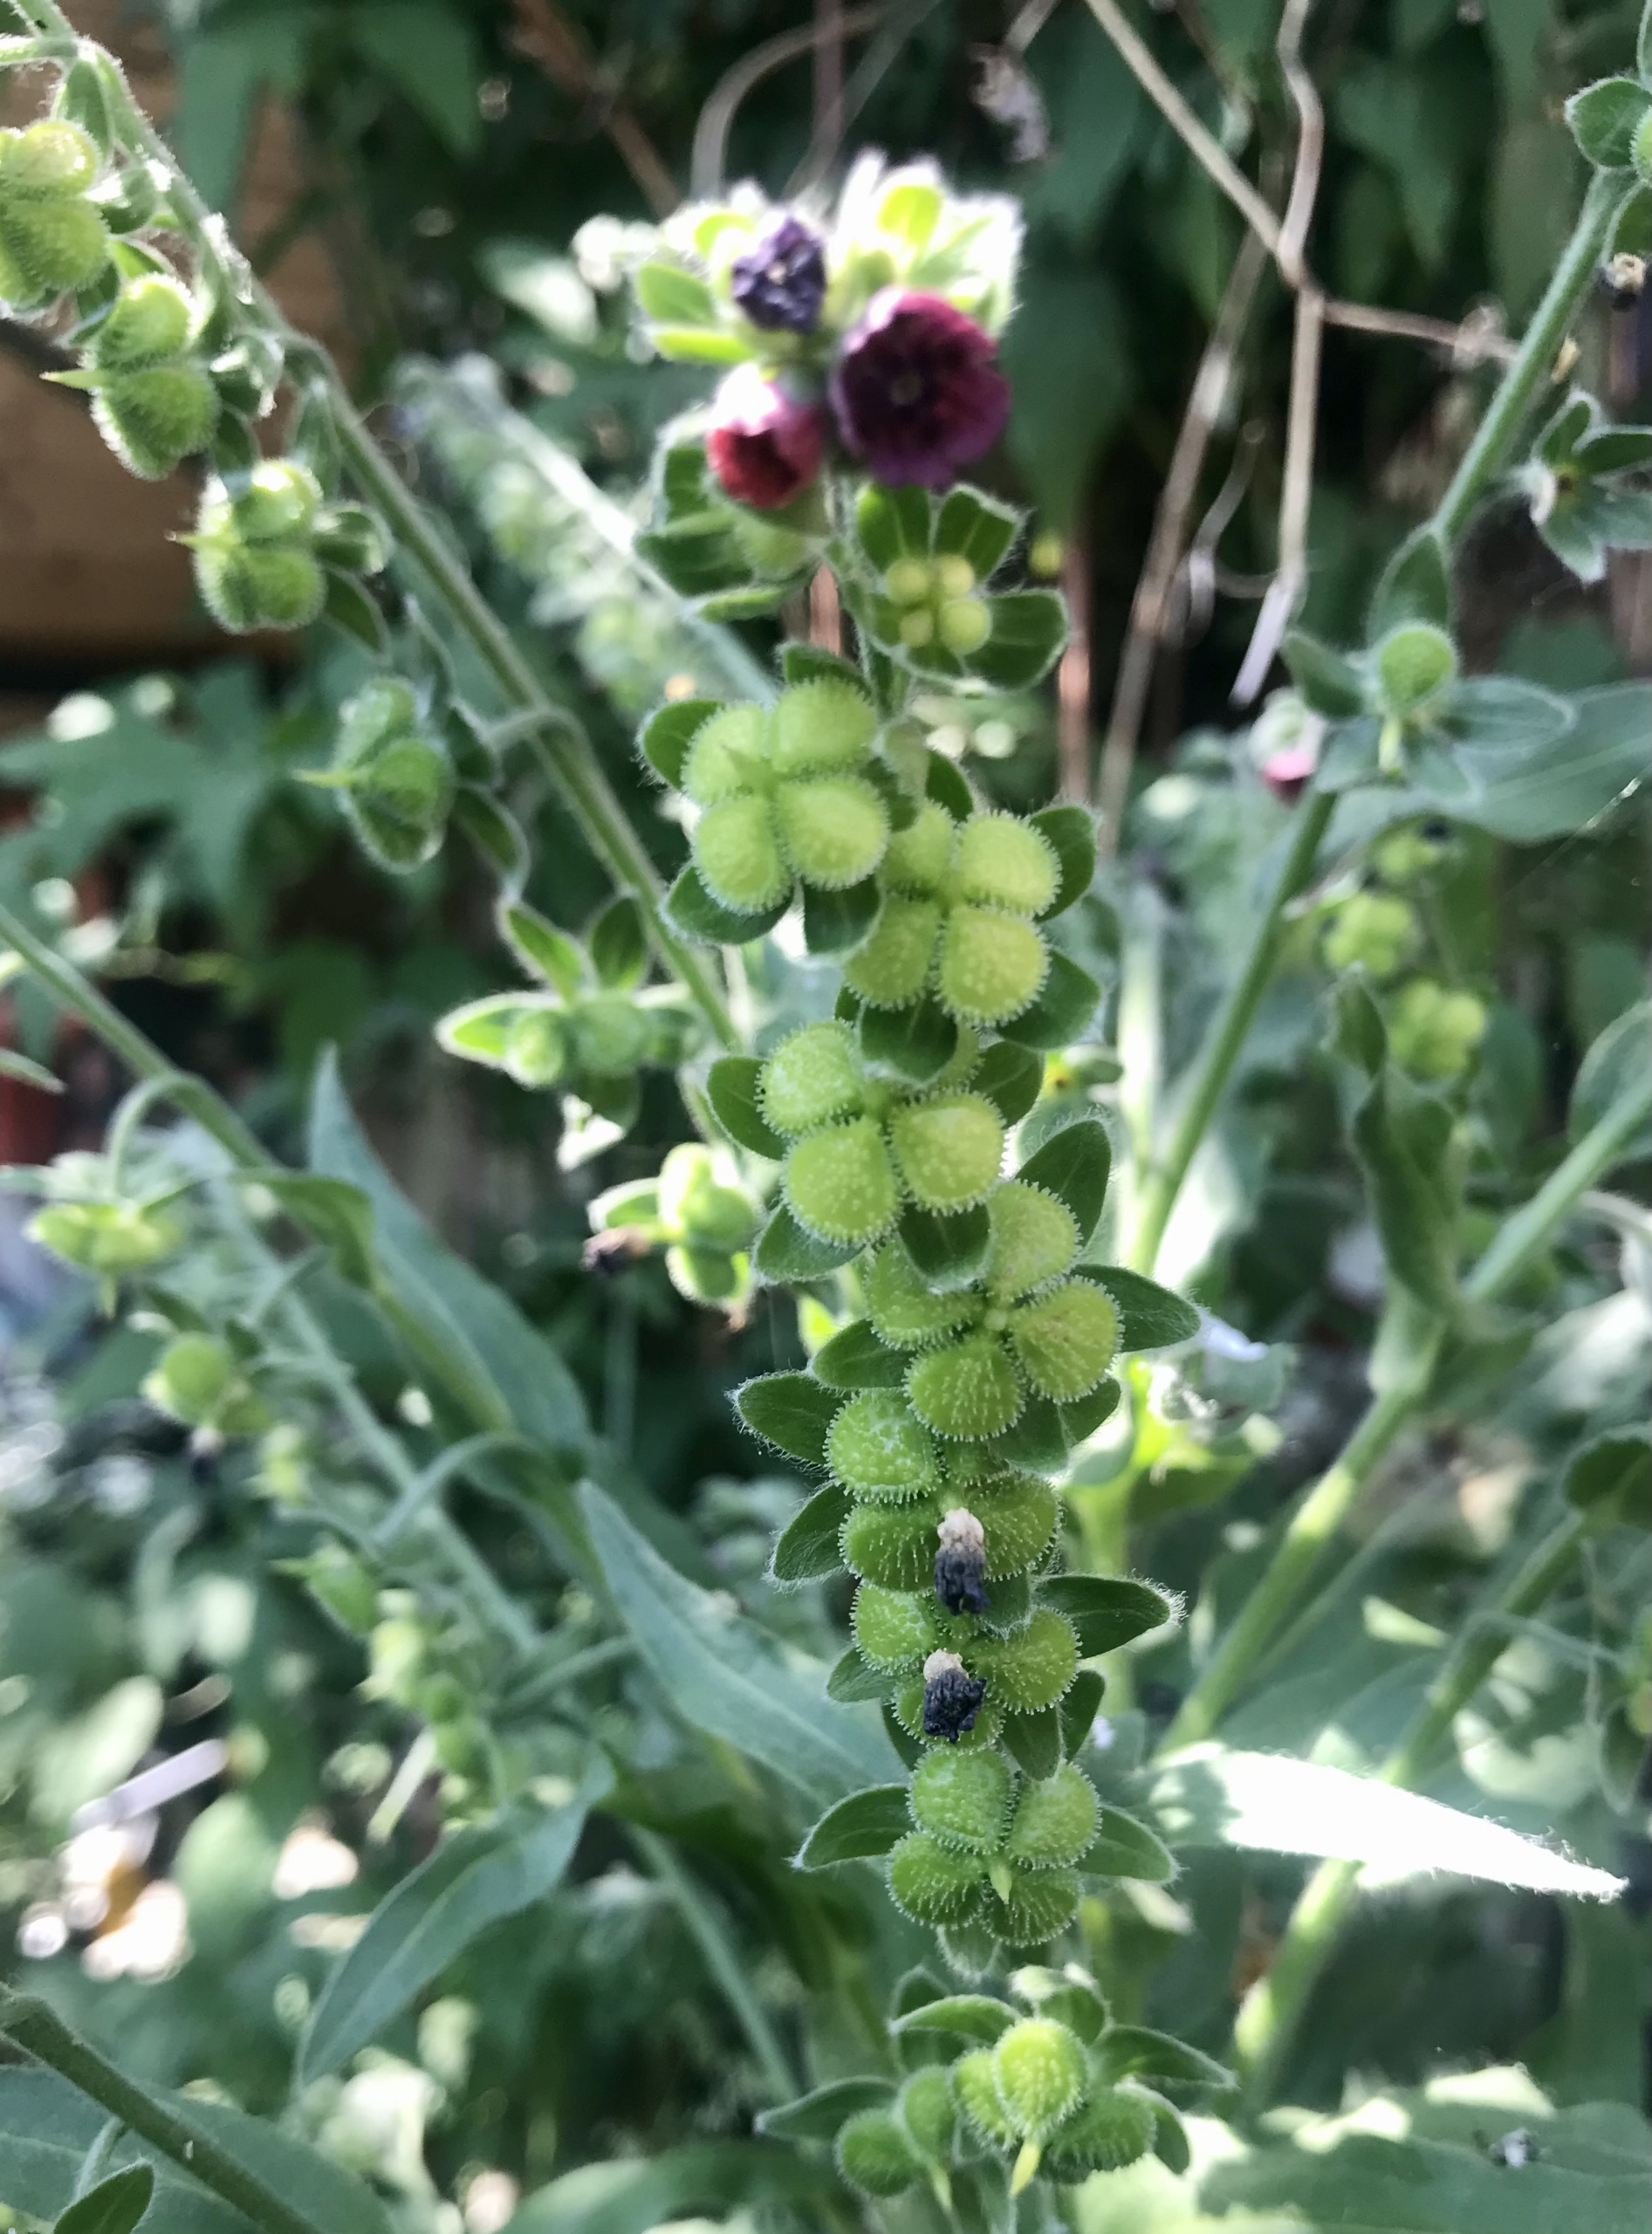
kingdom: Plantae
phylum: Tracheophyta
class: Magnoliopsida
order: Boraginales
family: Boraginaceae
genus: Cynoglossum
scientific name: Cynoglossum officinale
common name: Hundetunge
